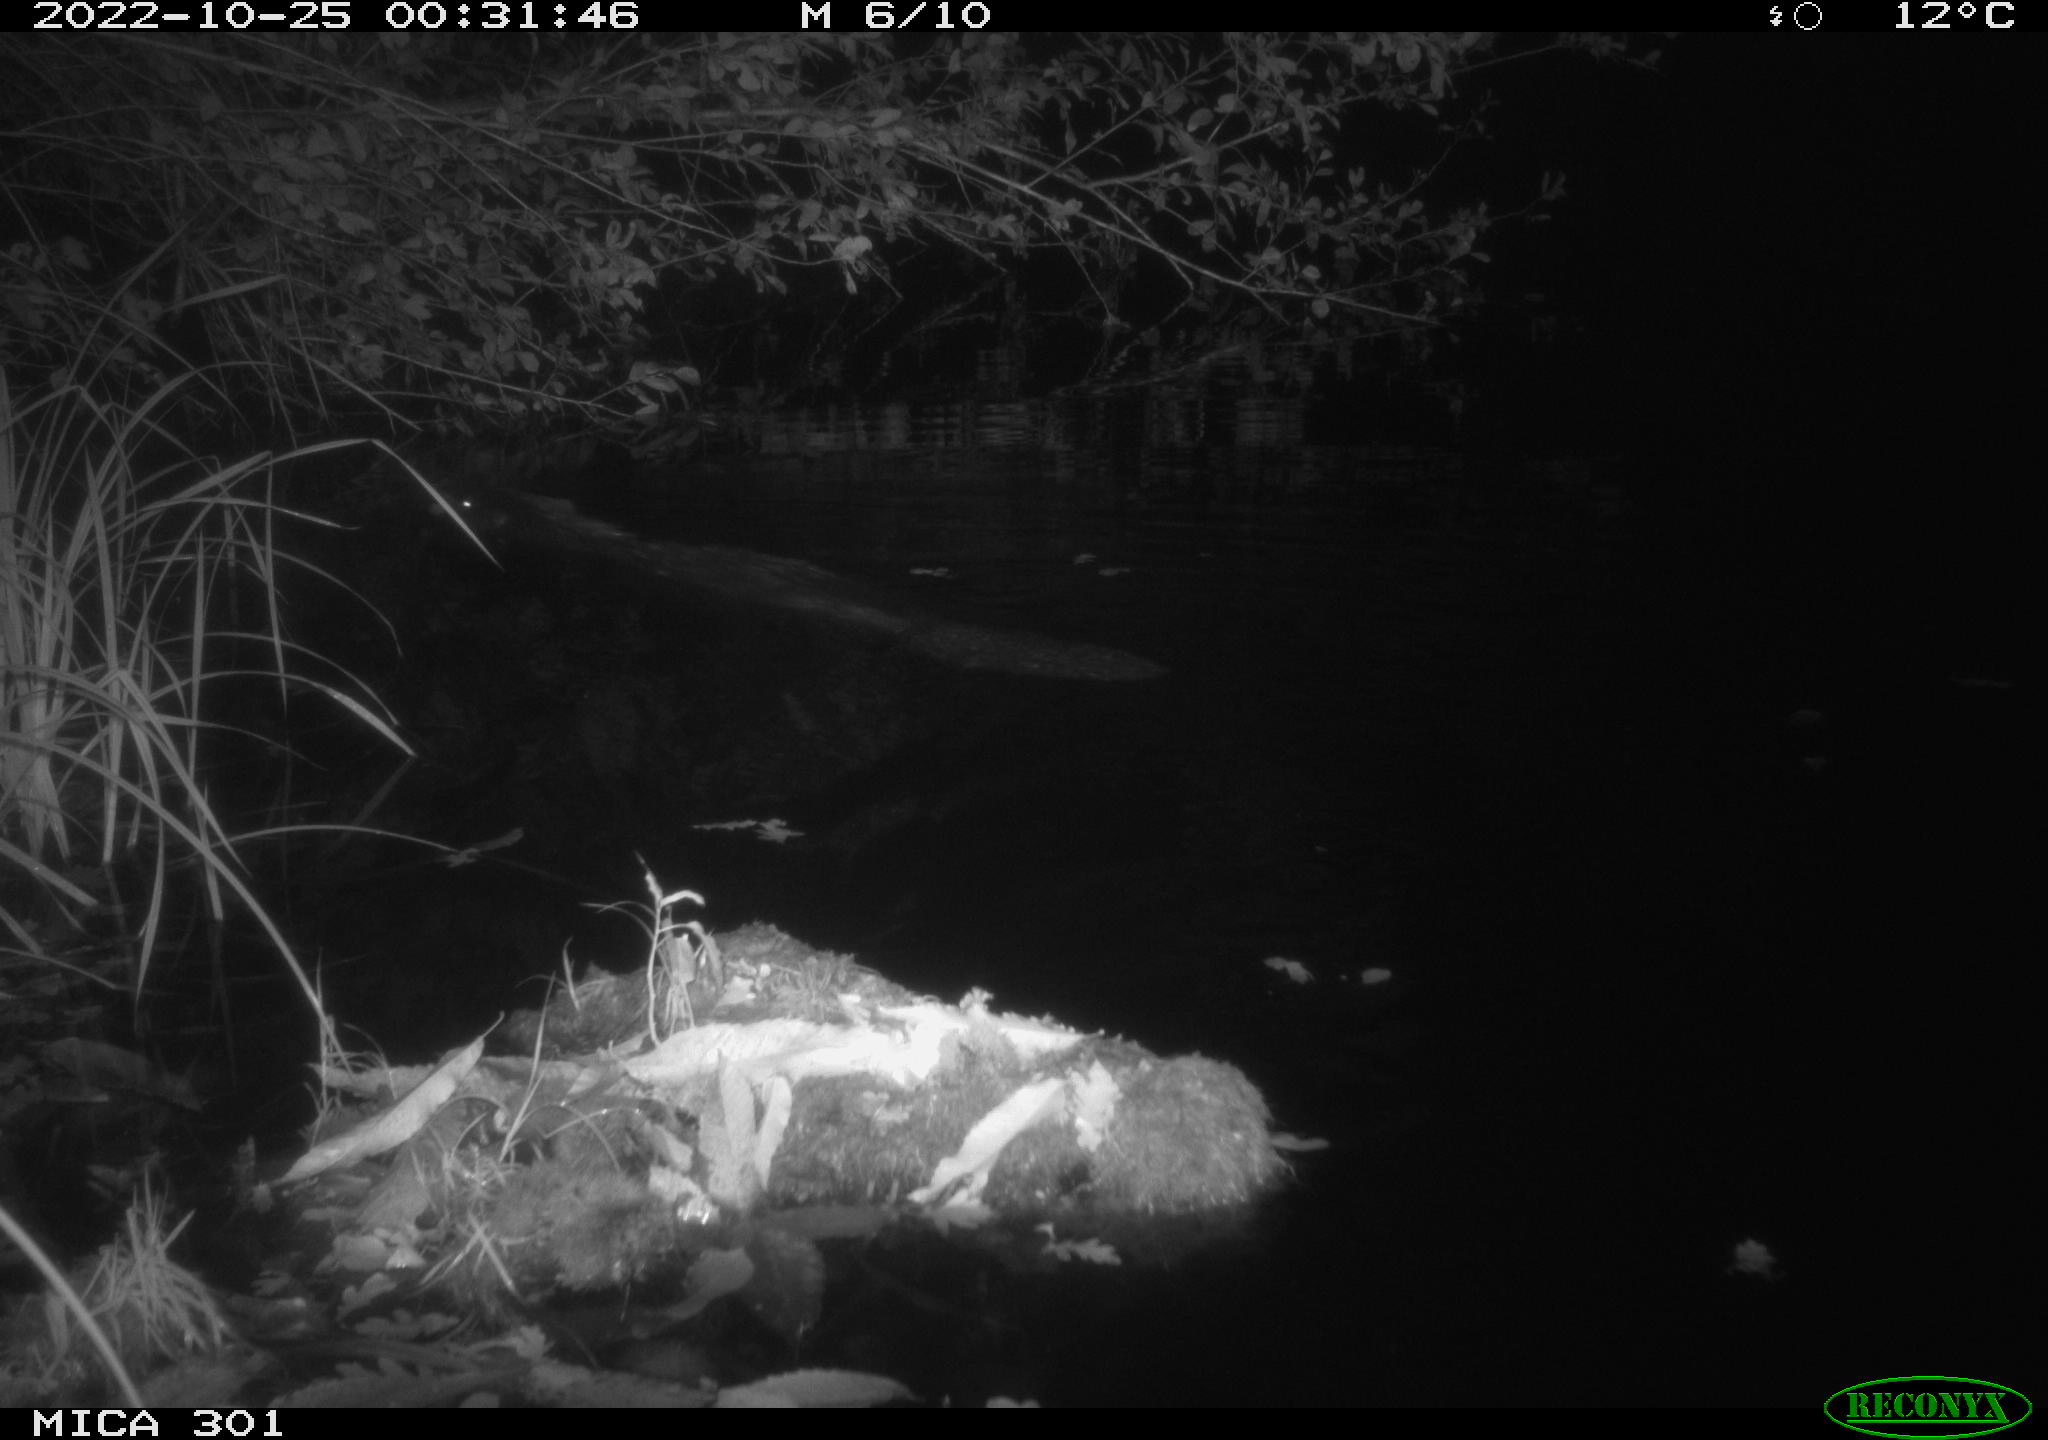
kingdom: Animalia
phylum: Chordata
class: Mammalia
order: Rodentia
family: Castoridae
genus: Castor
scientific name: Castor fiber
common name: Eurasian beaver
